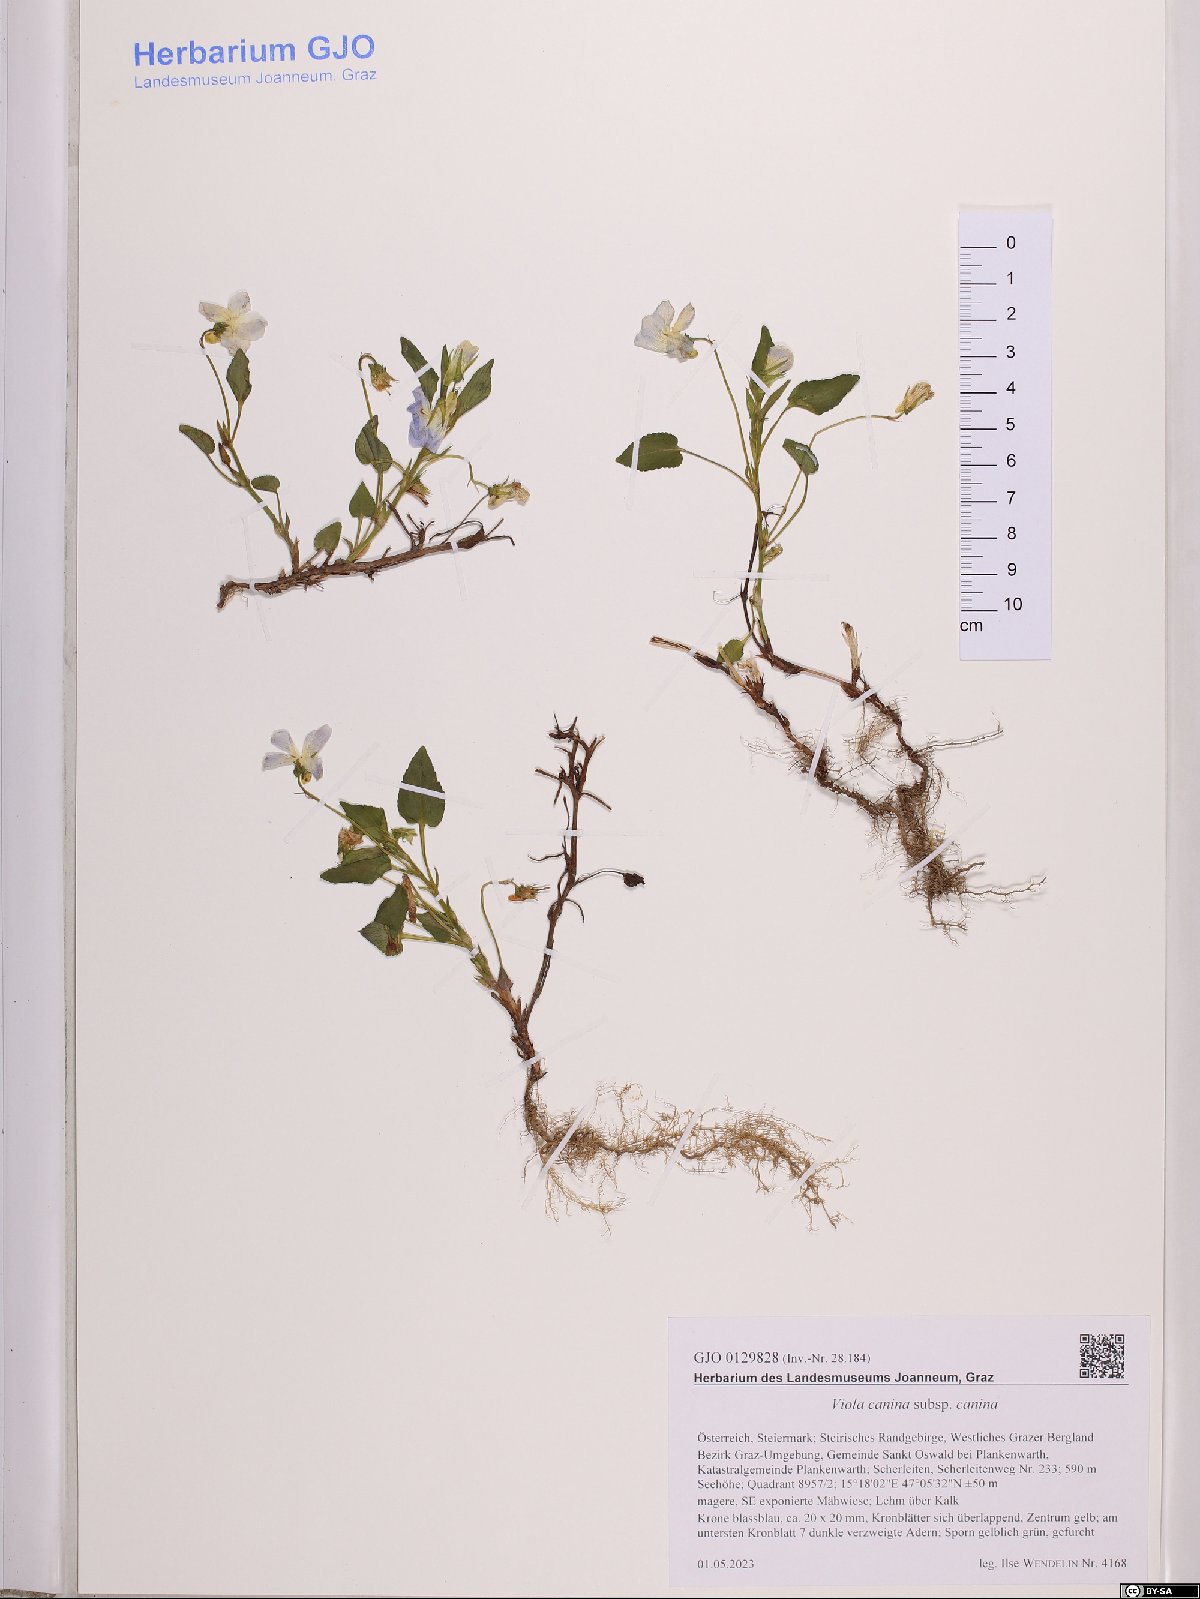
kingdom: Plantae
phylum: Tracheophyta
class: Magnoliopsida
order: Malpighiales
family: Violaceae
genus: Viola
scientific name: Viola canina
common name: Heath dog-violet
